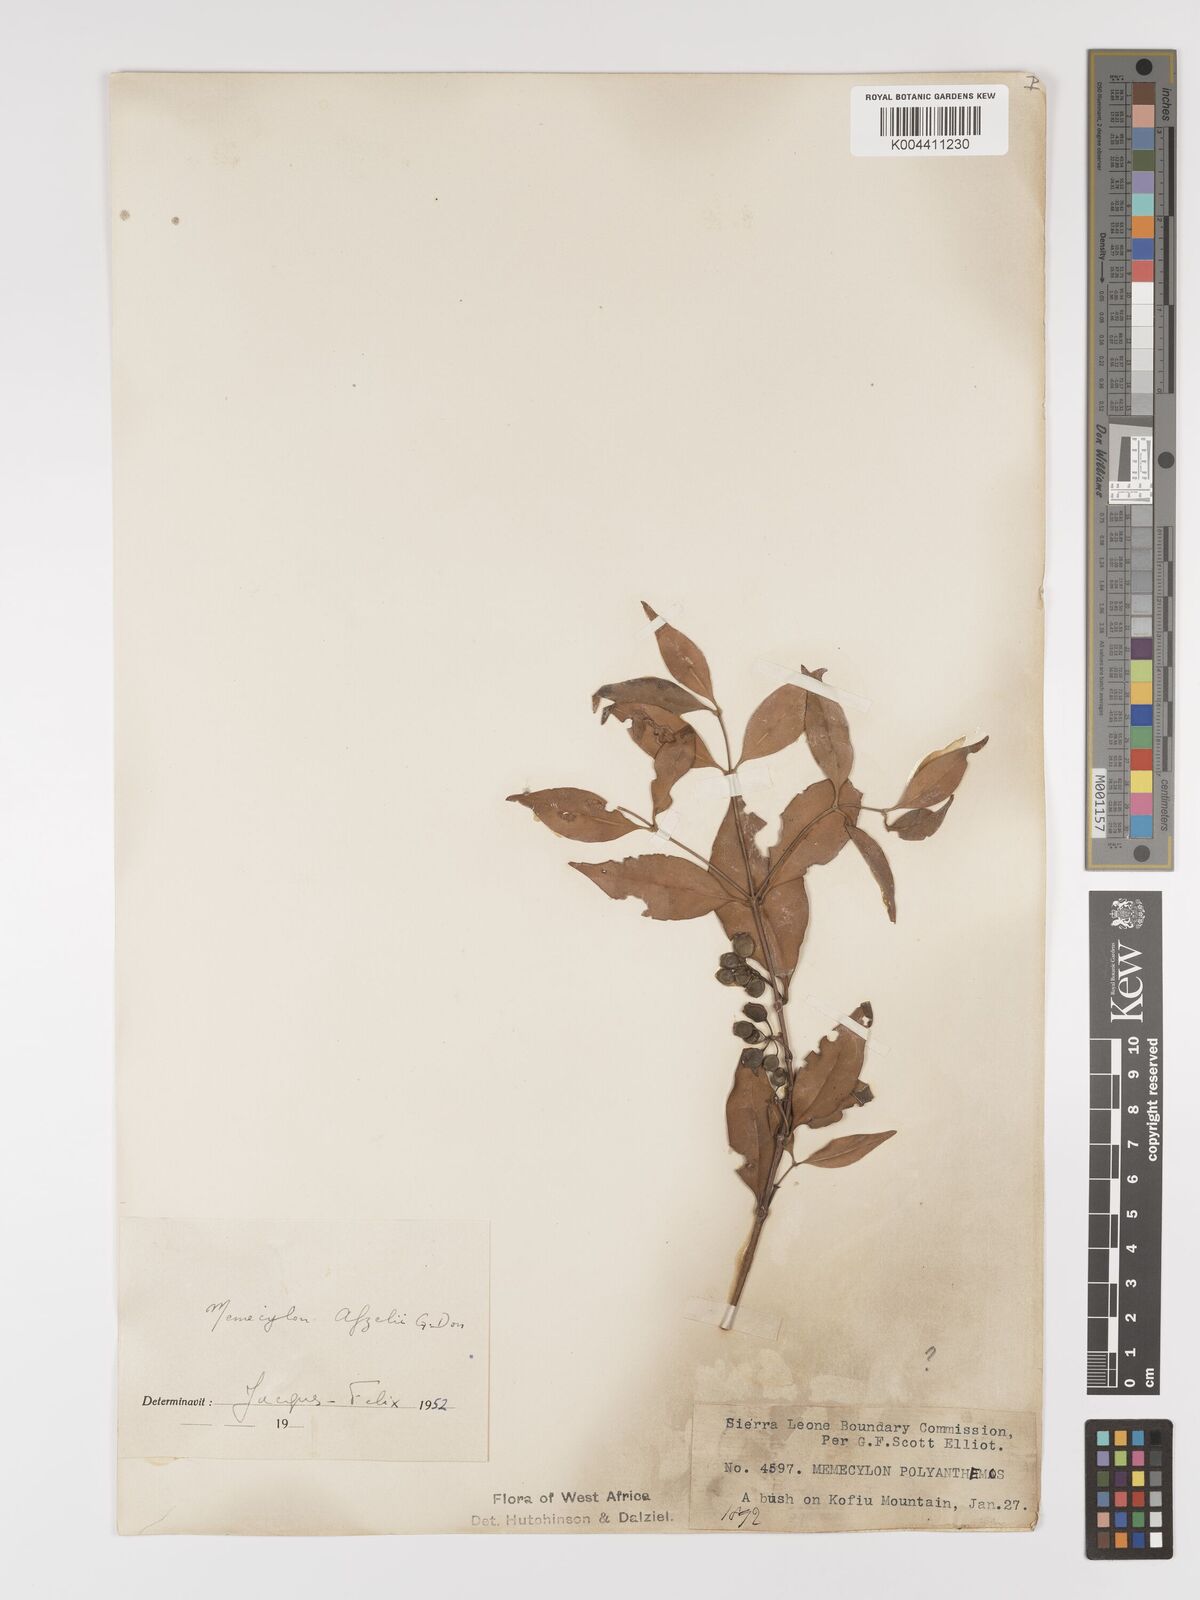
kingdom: Plantae
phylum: Tracheophyta
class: Magnoliopsida
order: Myrtales
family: Melastomataceae
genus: Memecylon
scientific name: Memecylon afzelii
